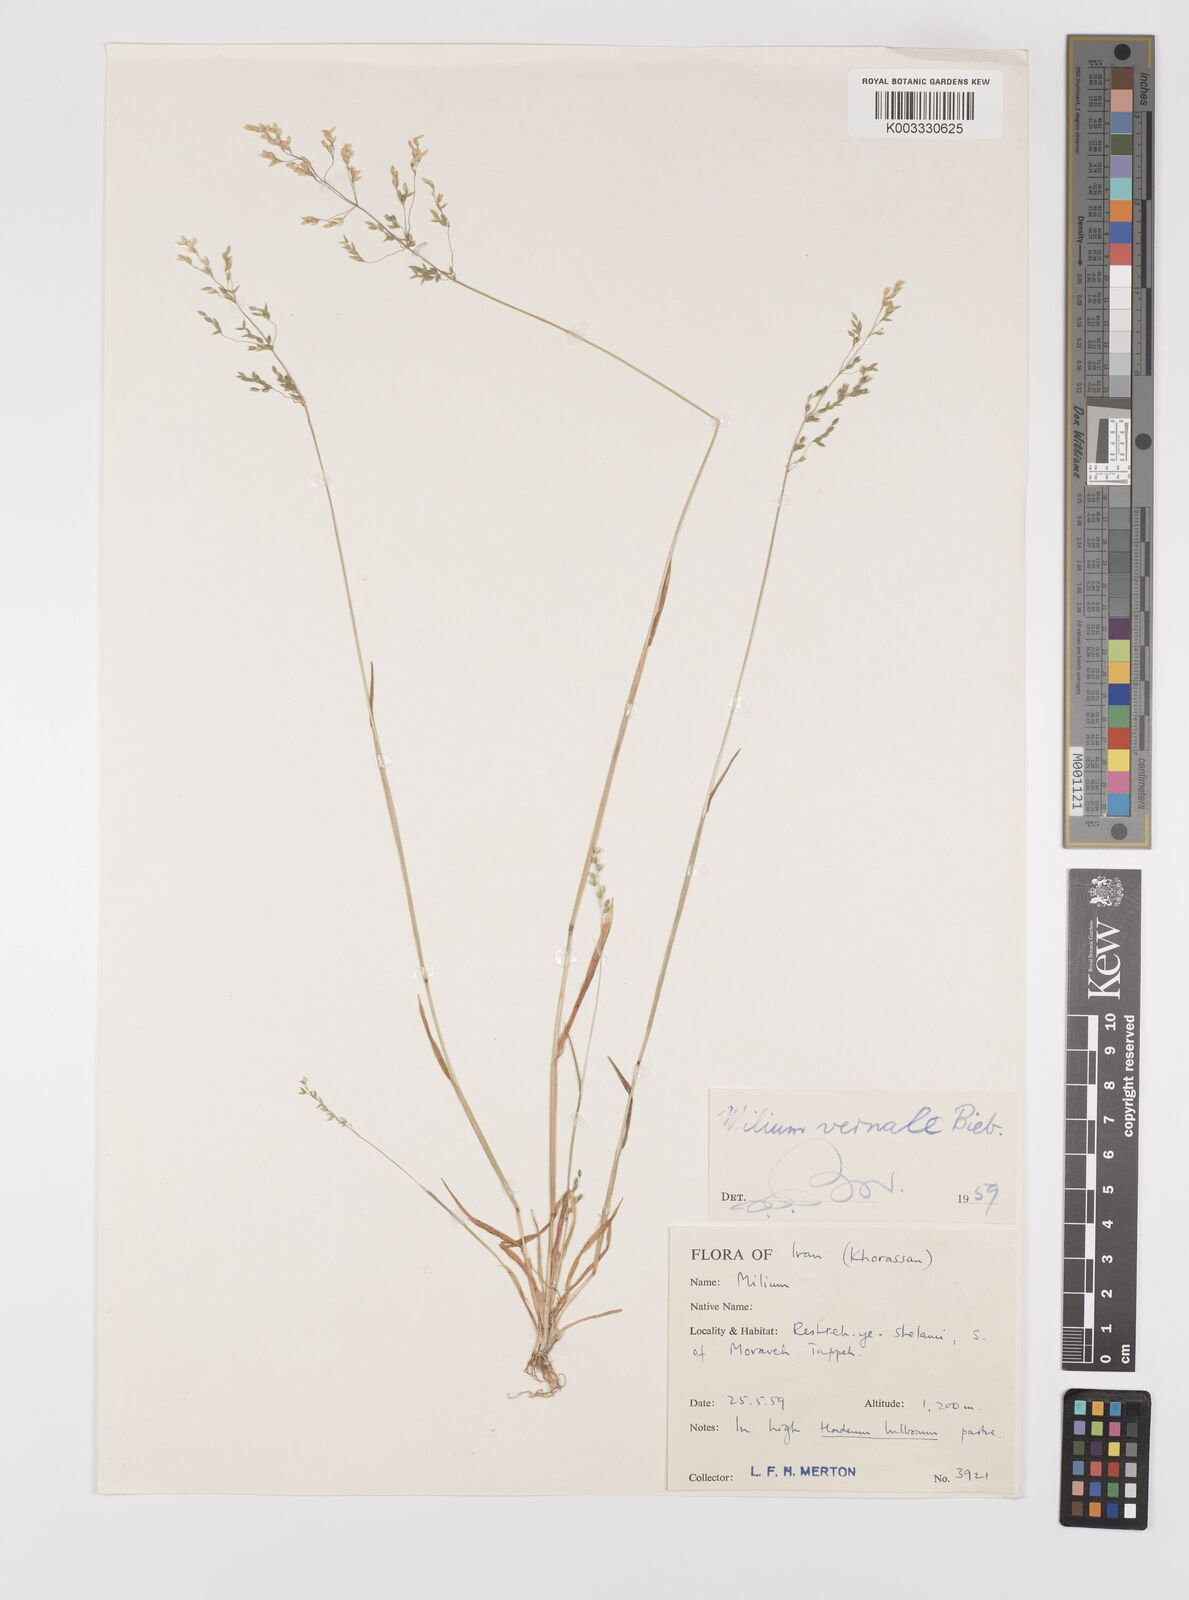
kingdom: Plantae
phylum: Tracheophyta
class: Liliopsida
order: Poales
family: Poaceae
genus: Milium
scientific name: Milium vernale
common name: Early millet
